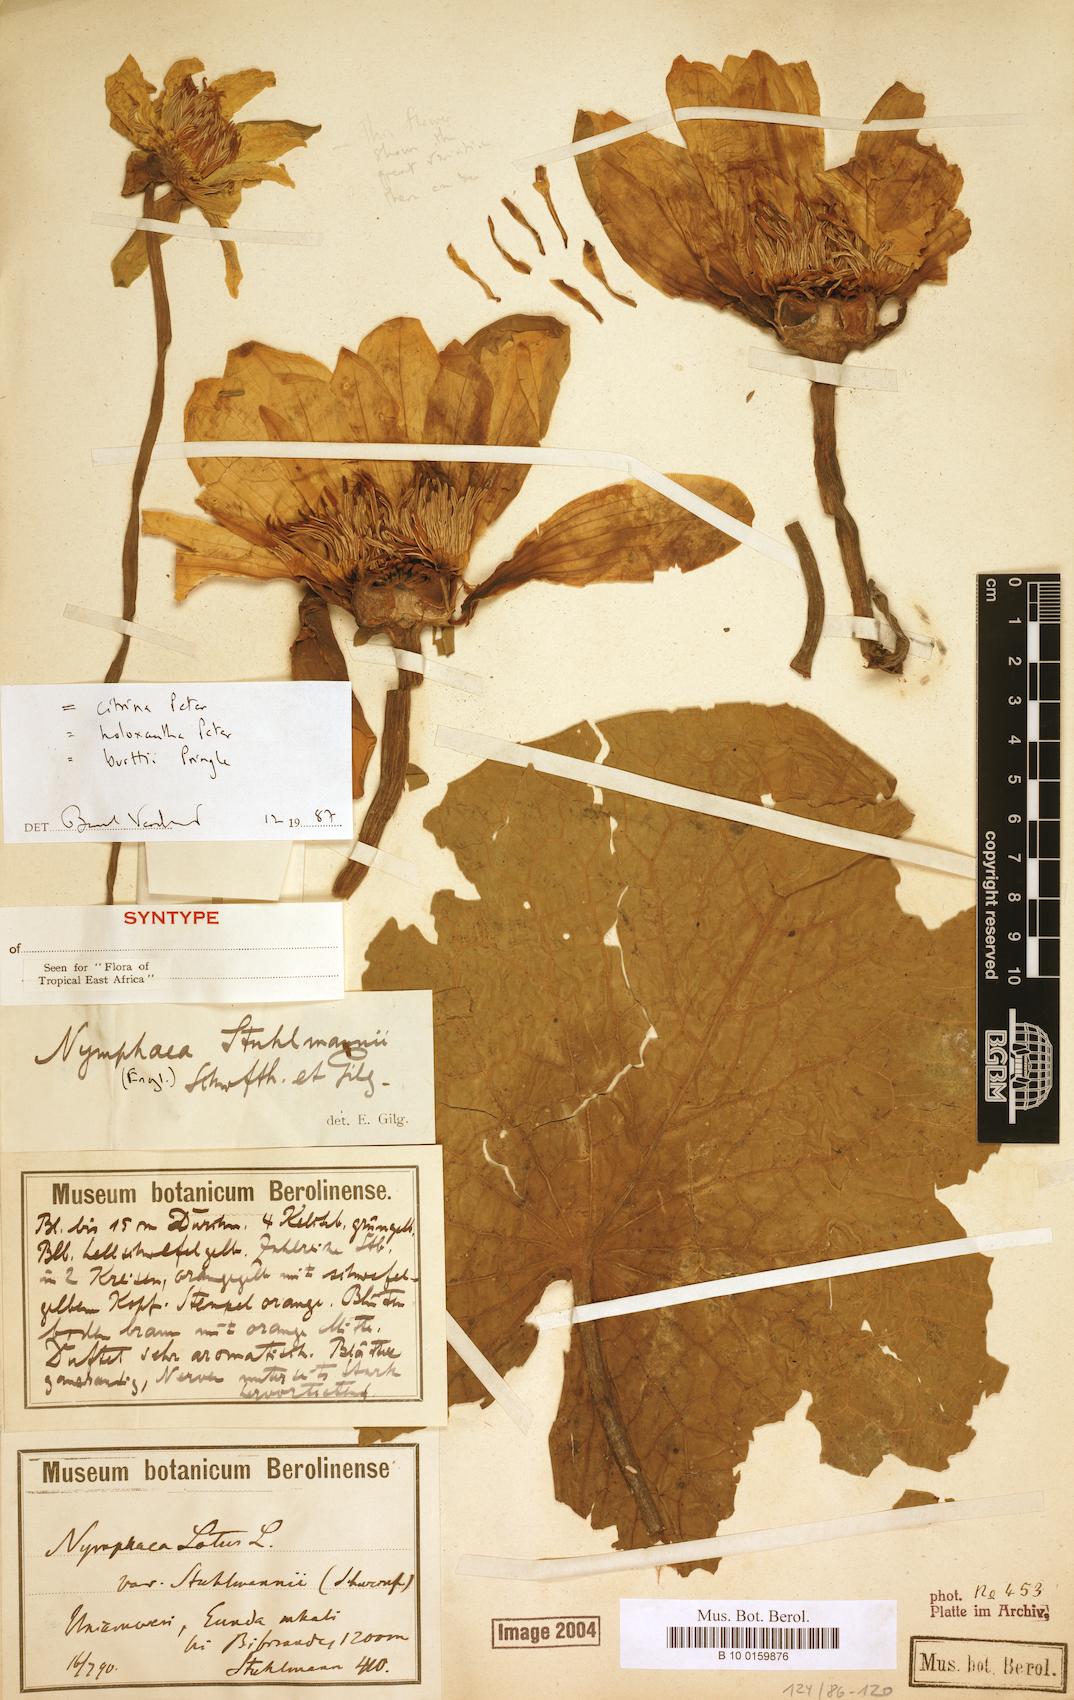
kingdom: Plantae
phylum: Tracheophyta
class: Magnoliopsida
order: Nymphaeales
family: Nymphaeaceae
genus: Nymphaea
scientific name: Nymphaea stuhlmannii
